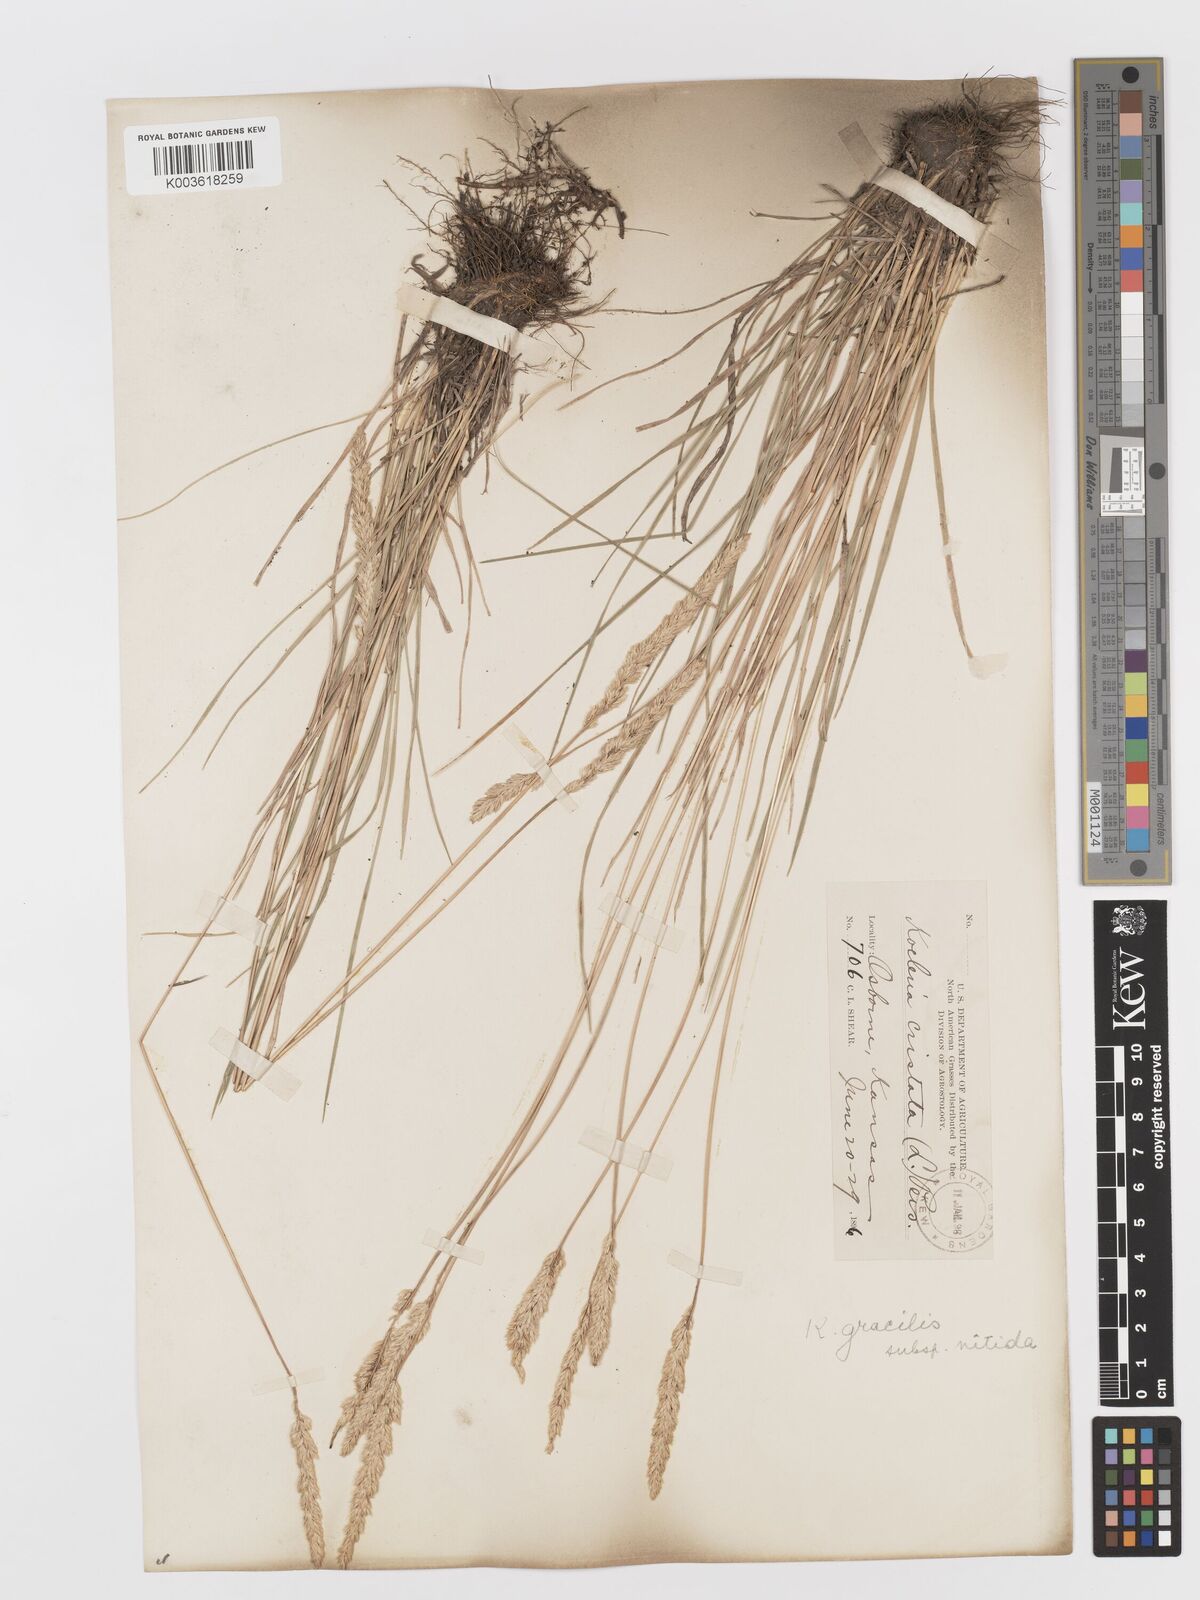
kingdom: Plantae
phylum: Tracheophyta
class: Liliopsida
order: Poales
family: Poaceae
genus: Koeleria
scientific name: Koeleria macrantha
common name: Crested hair-grass
